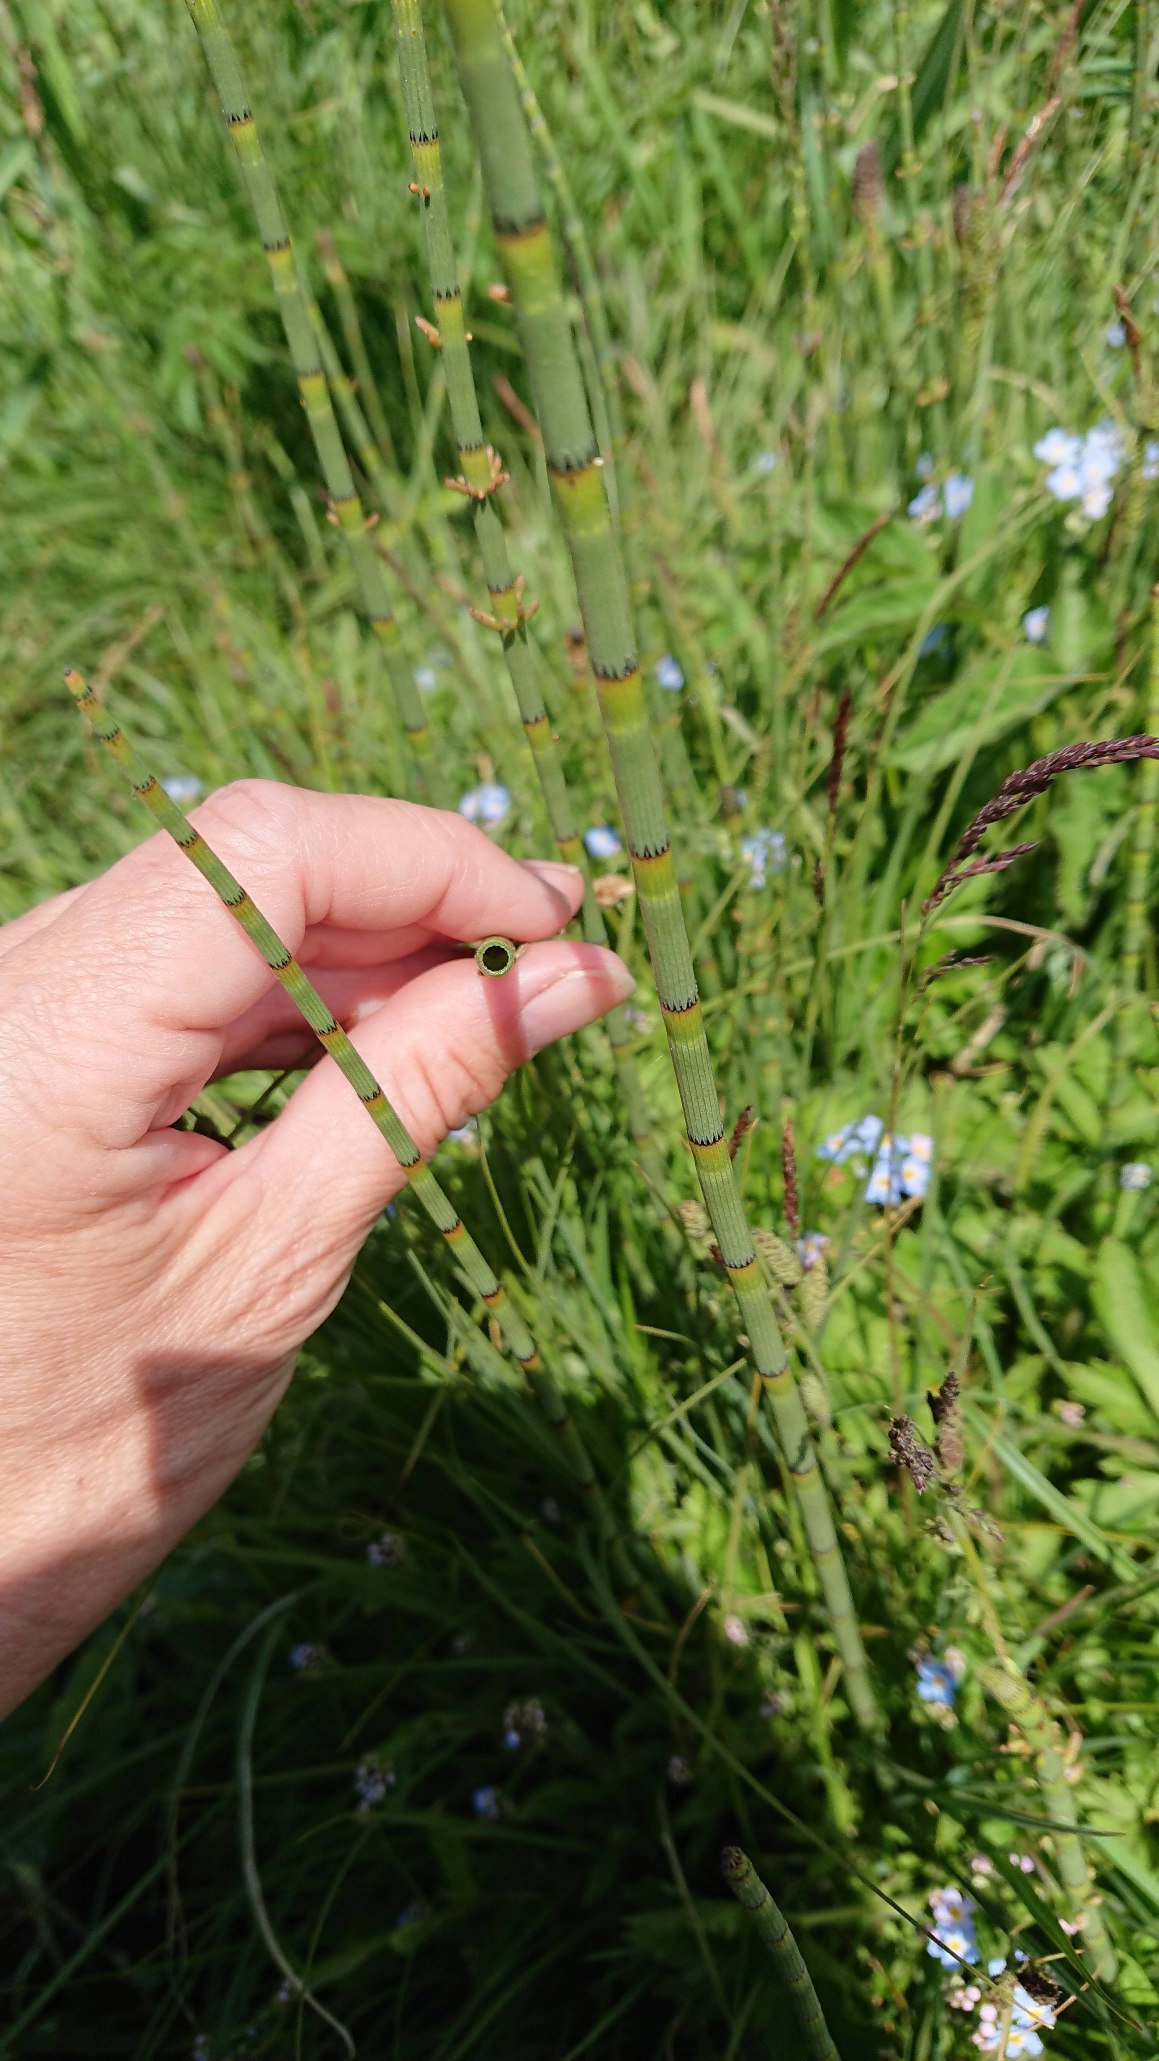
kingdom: Plantae
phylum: Tracheophyta
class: Polypodiopsida
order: Equisetales
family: Equisetaceae
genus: Equisetum
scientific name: Equisetum fluviatile
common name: Dynd-padderok
